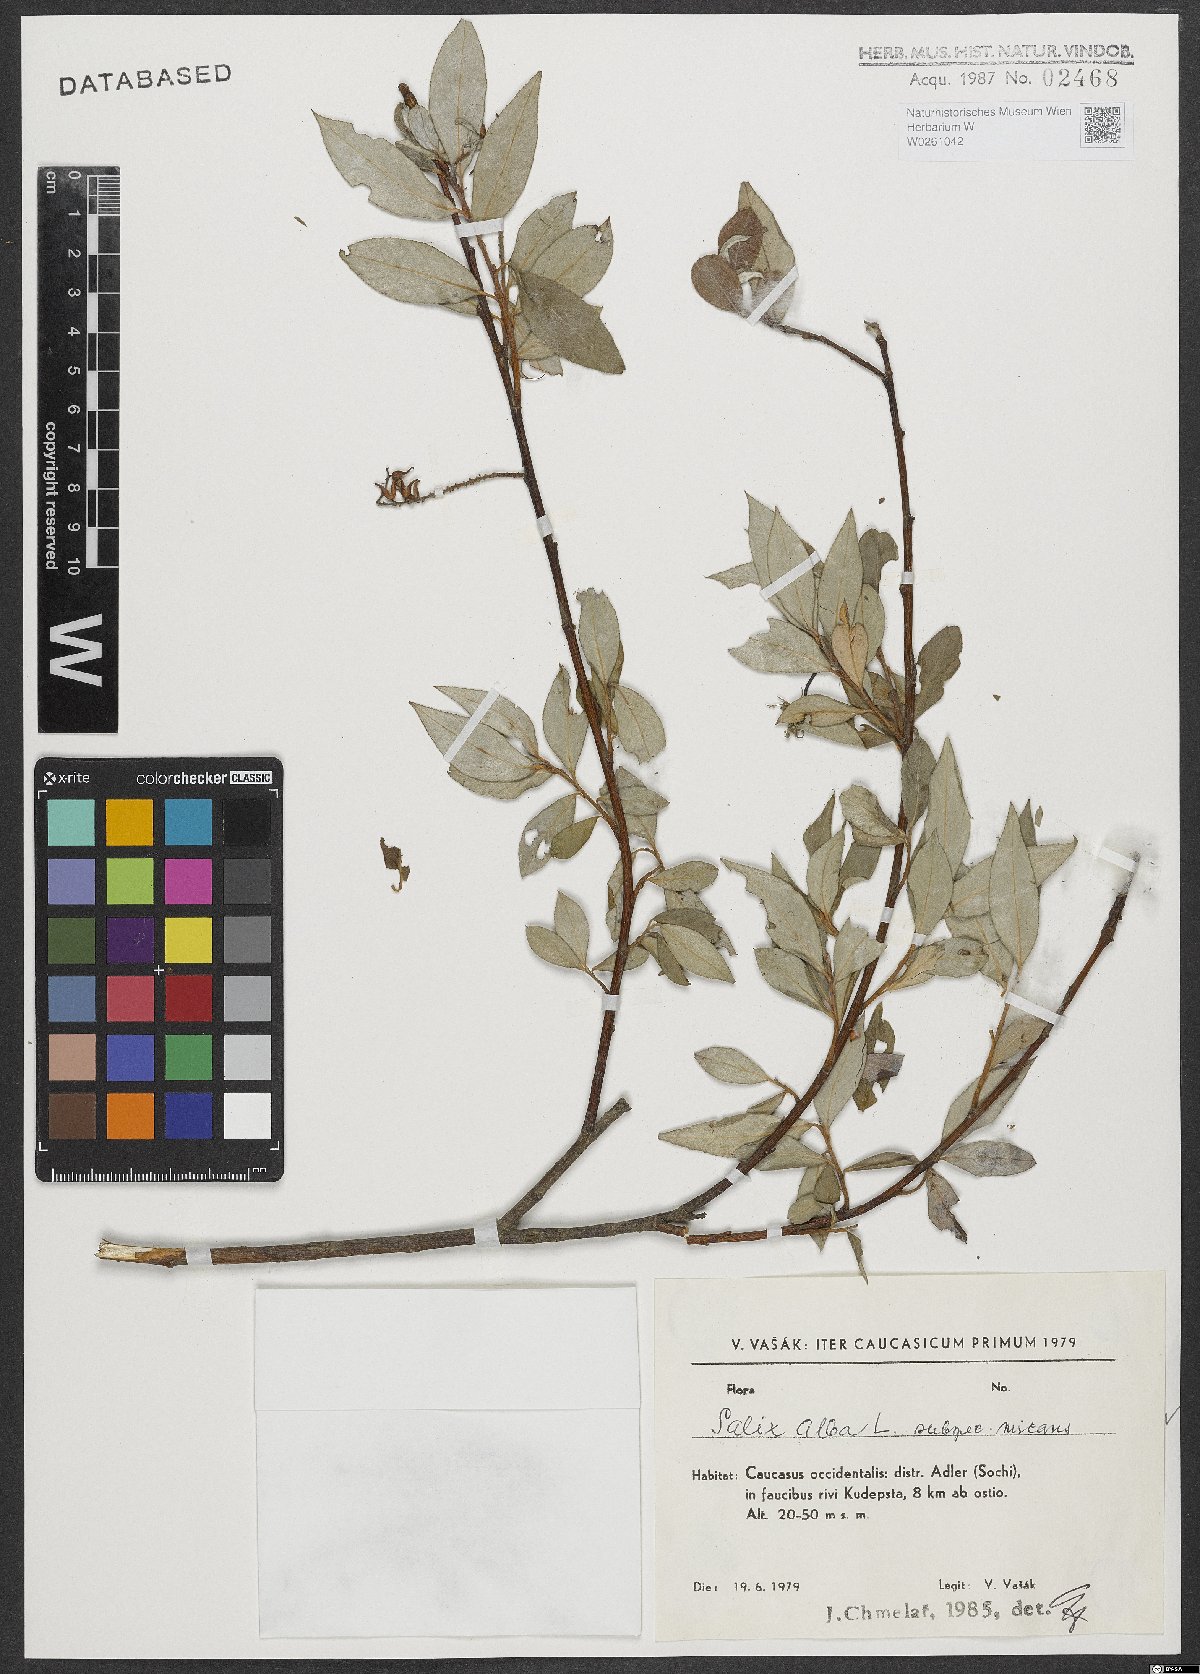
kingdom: Plantae
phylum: Tracheophyta
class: Magnoliopsida
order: Malpighiales
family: Salicaceae
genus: Salix
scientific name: Salix alba
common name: White willow
